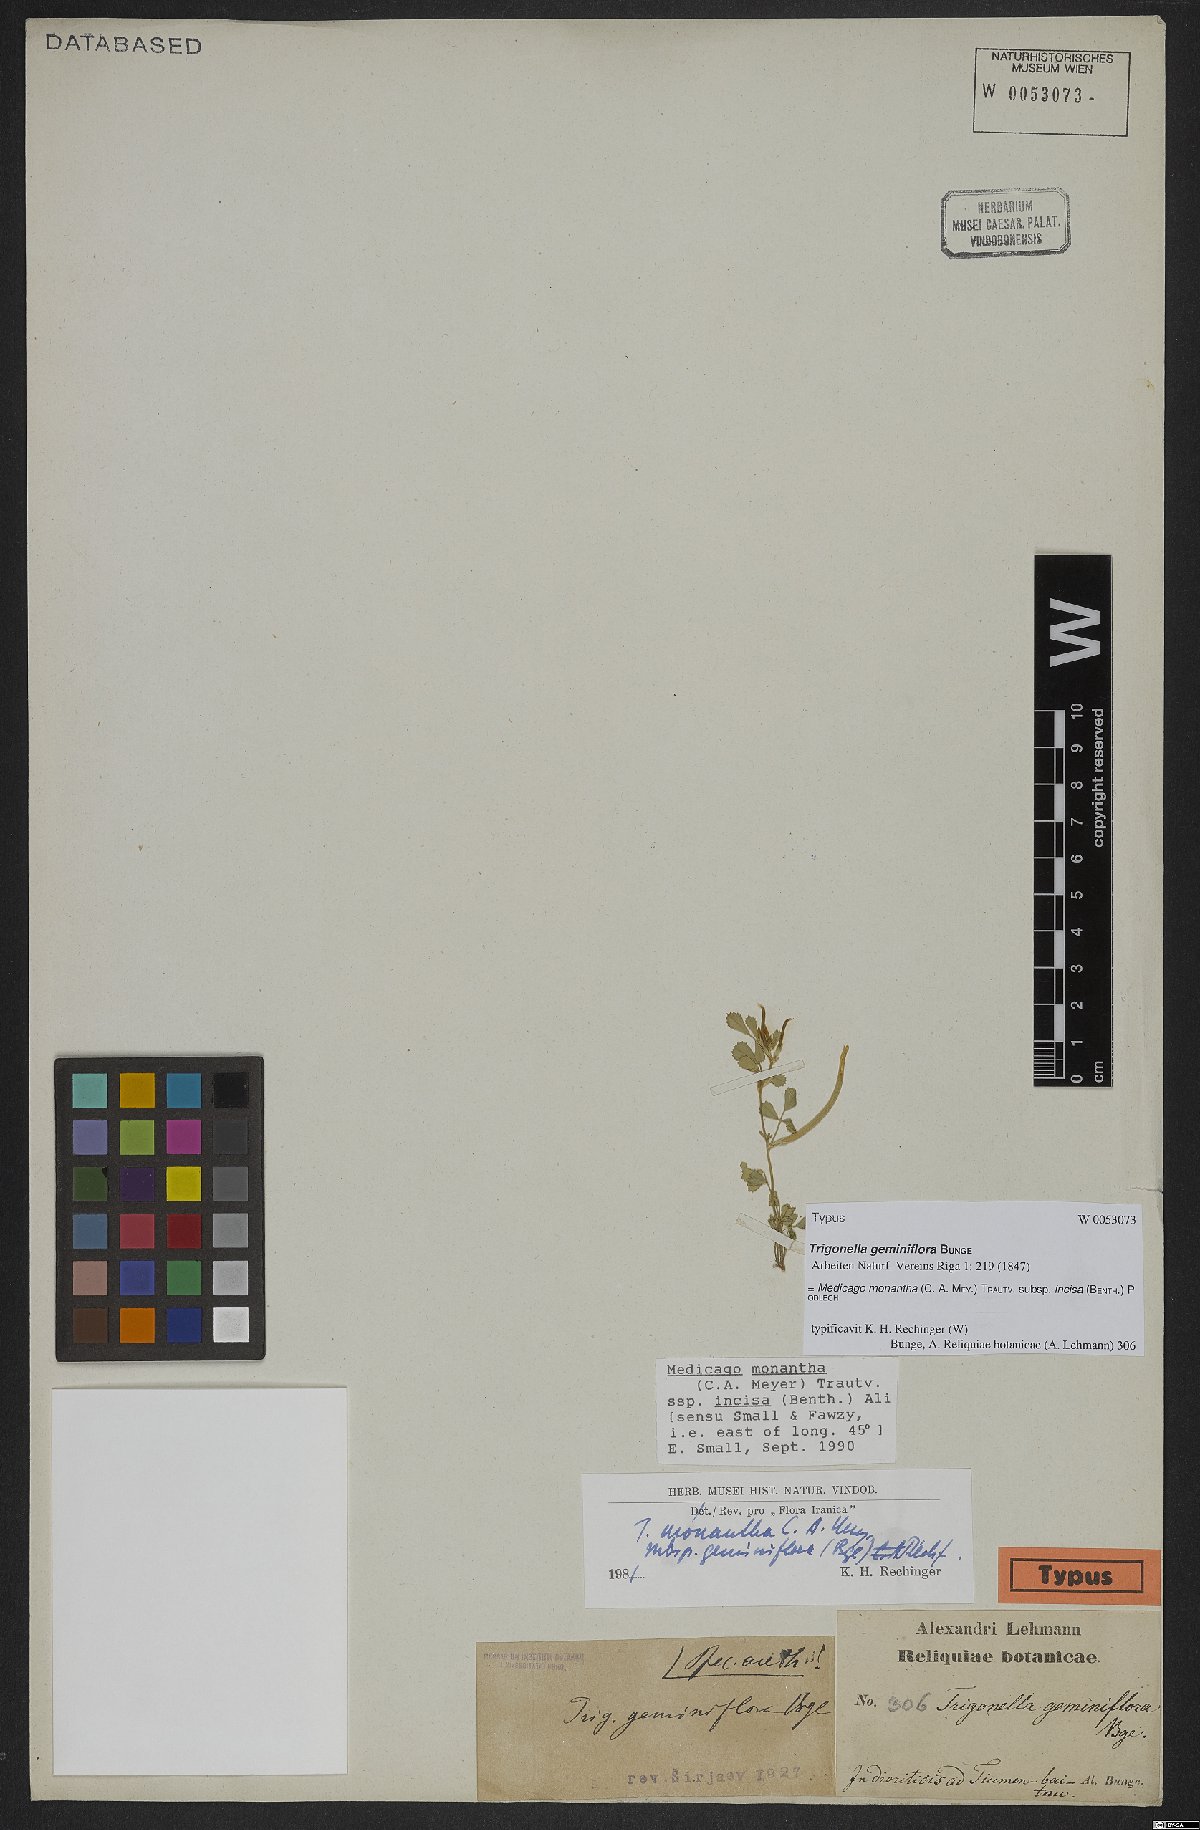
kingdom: Plantae
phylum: Tracheophyta
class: Magnoliopsida
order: Fabales
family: Fabaceae
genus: Medicago
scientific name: Medicago monantha
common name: Medick
